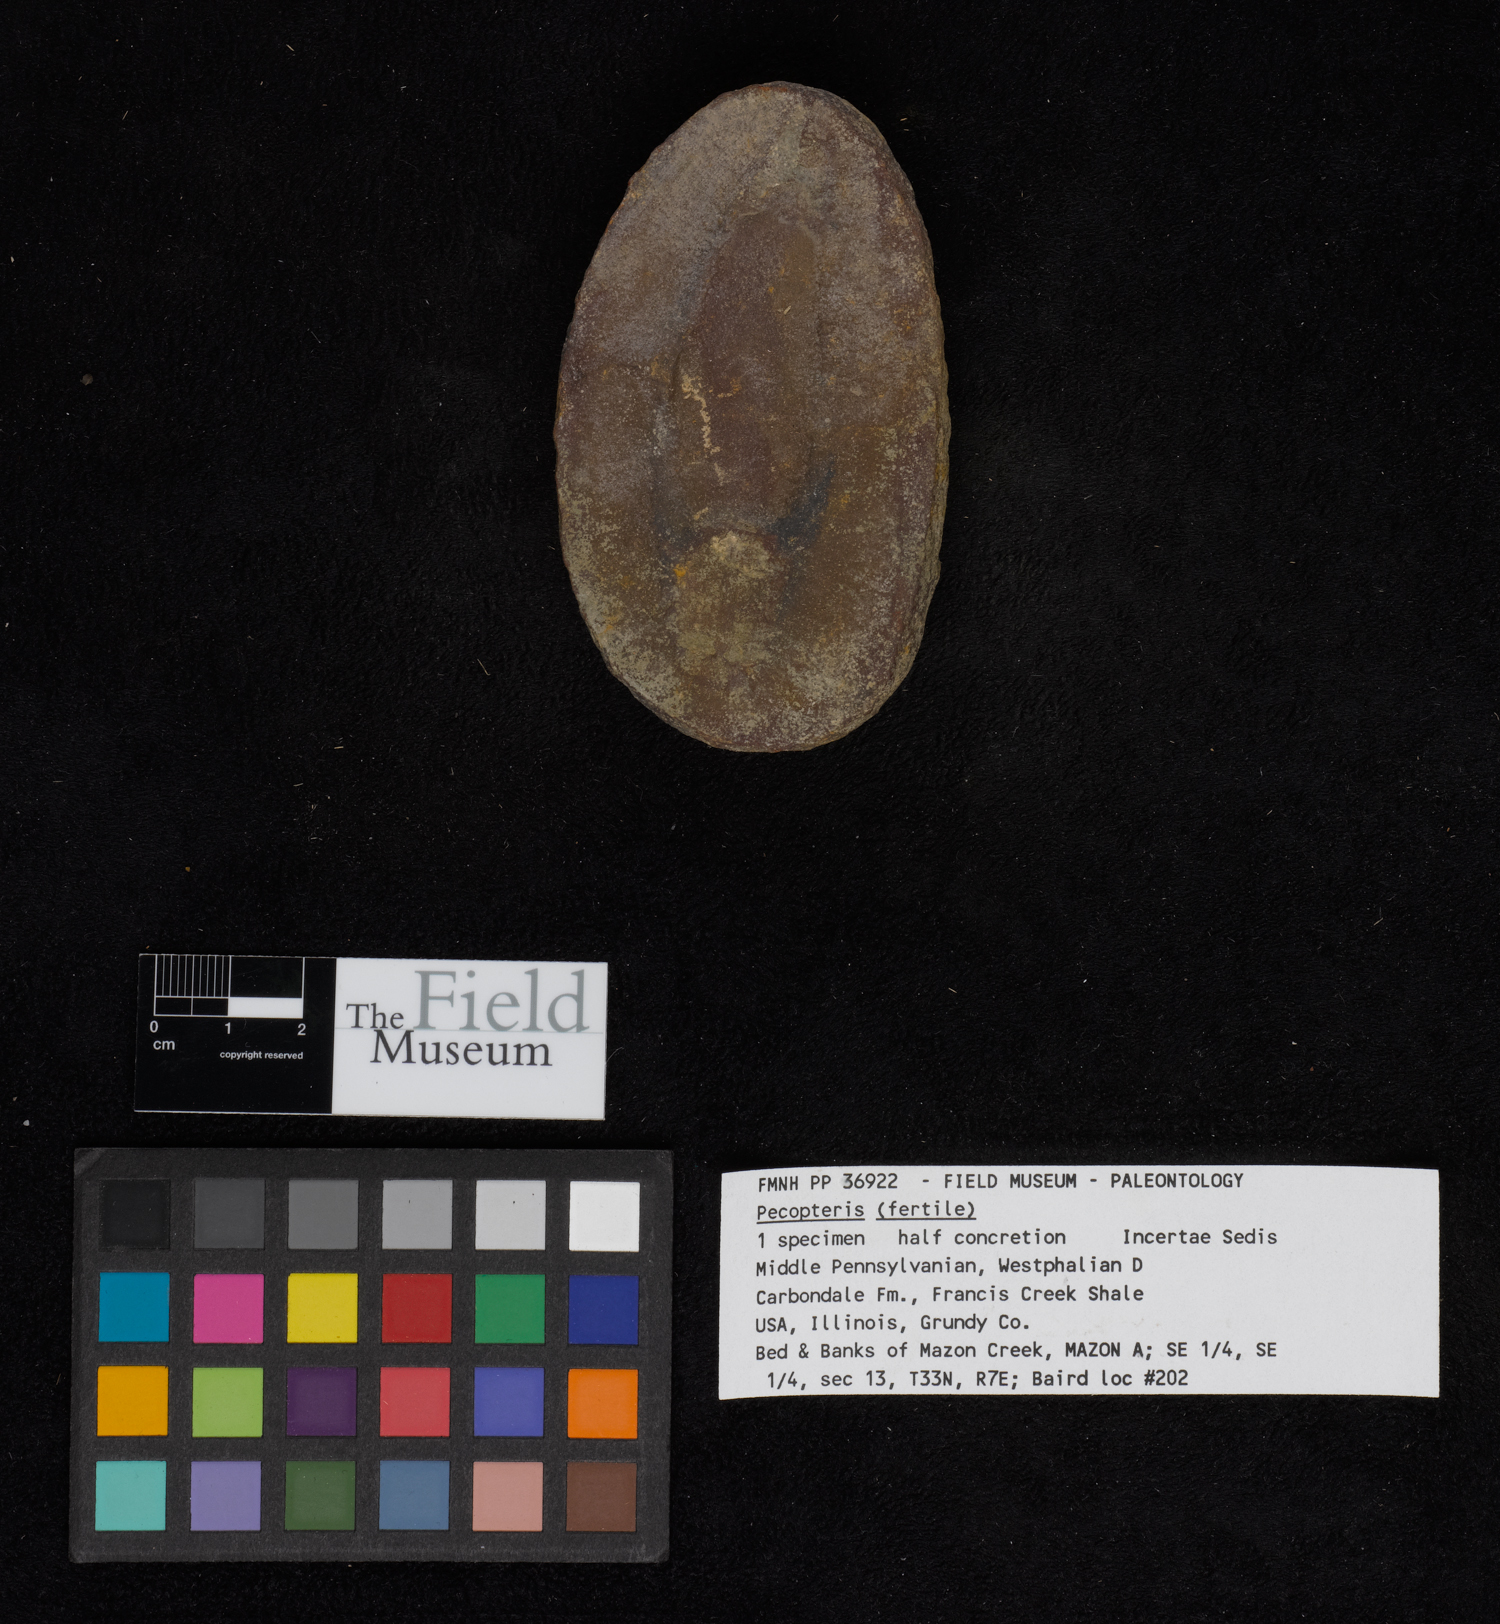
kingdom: Plantae
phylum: Tracheophyta
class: Polypodiopsida
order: Marattiales
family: Asterothecaceae
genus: Pecopteris
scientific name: Pecopteris
